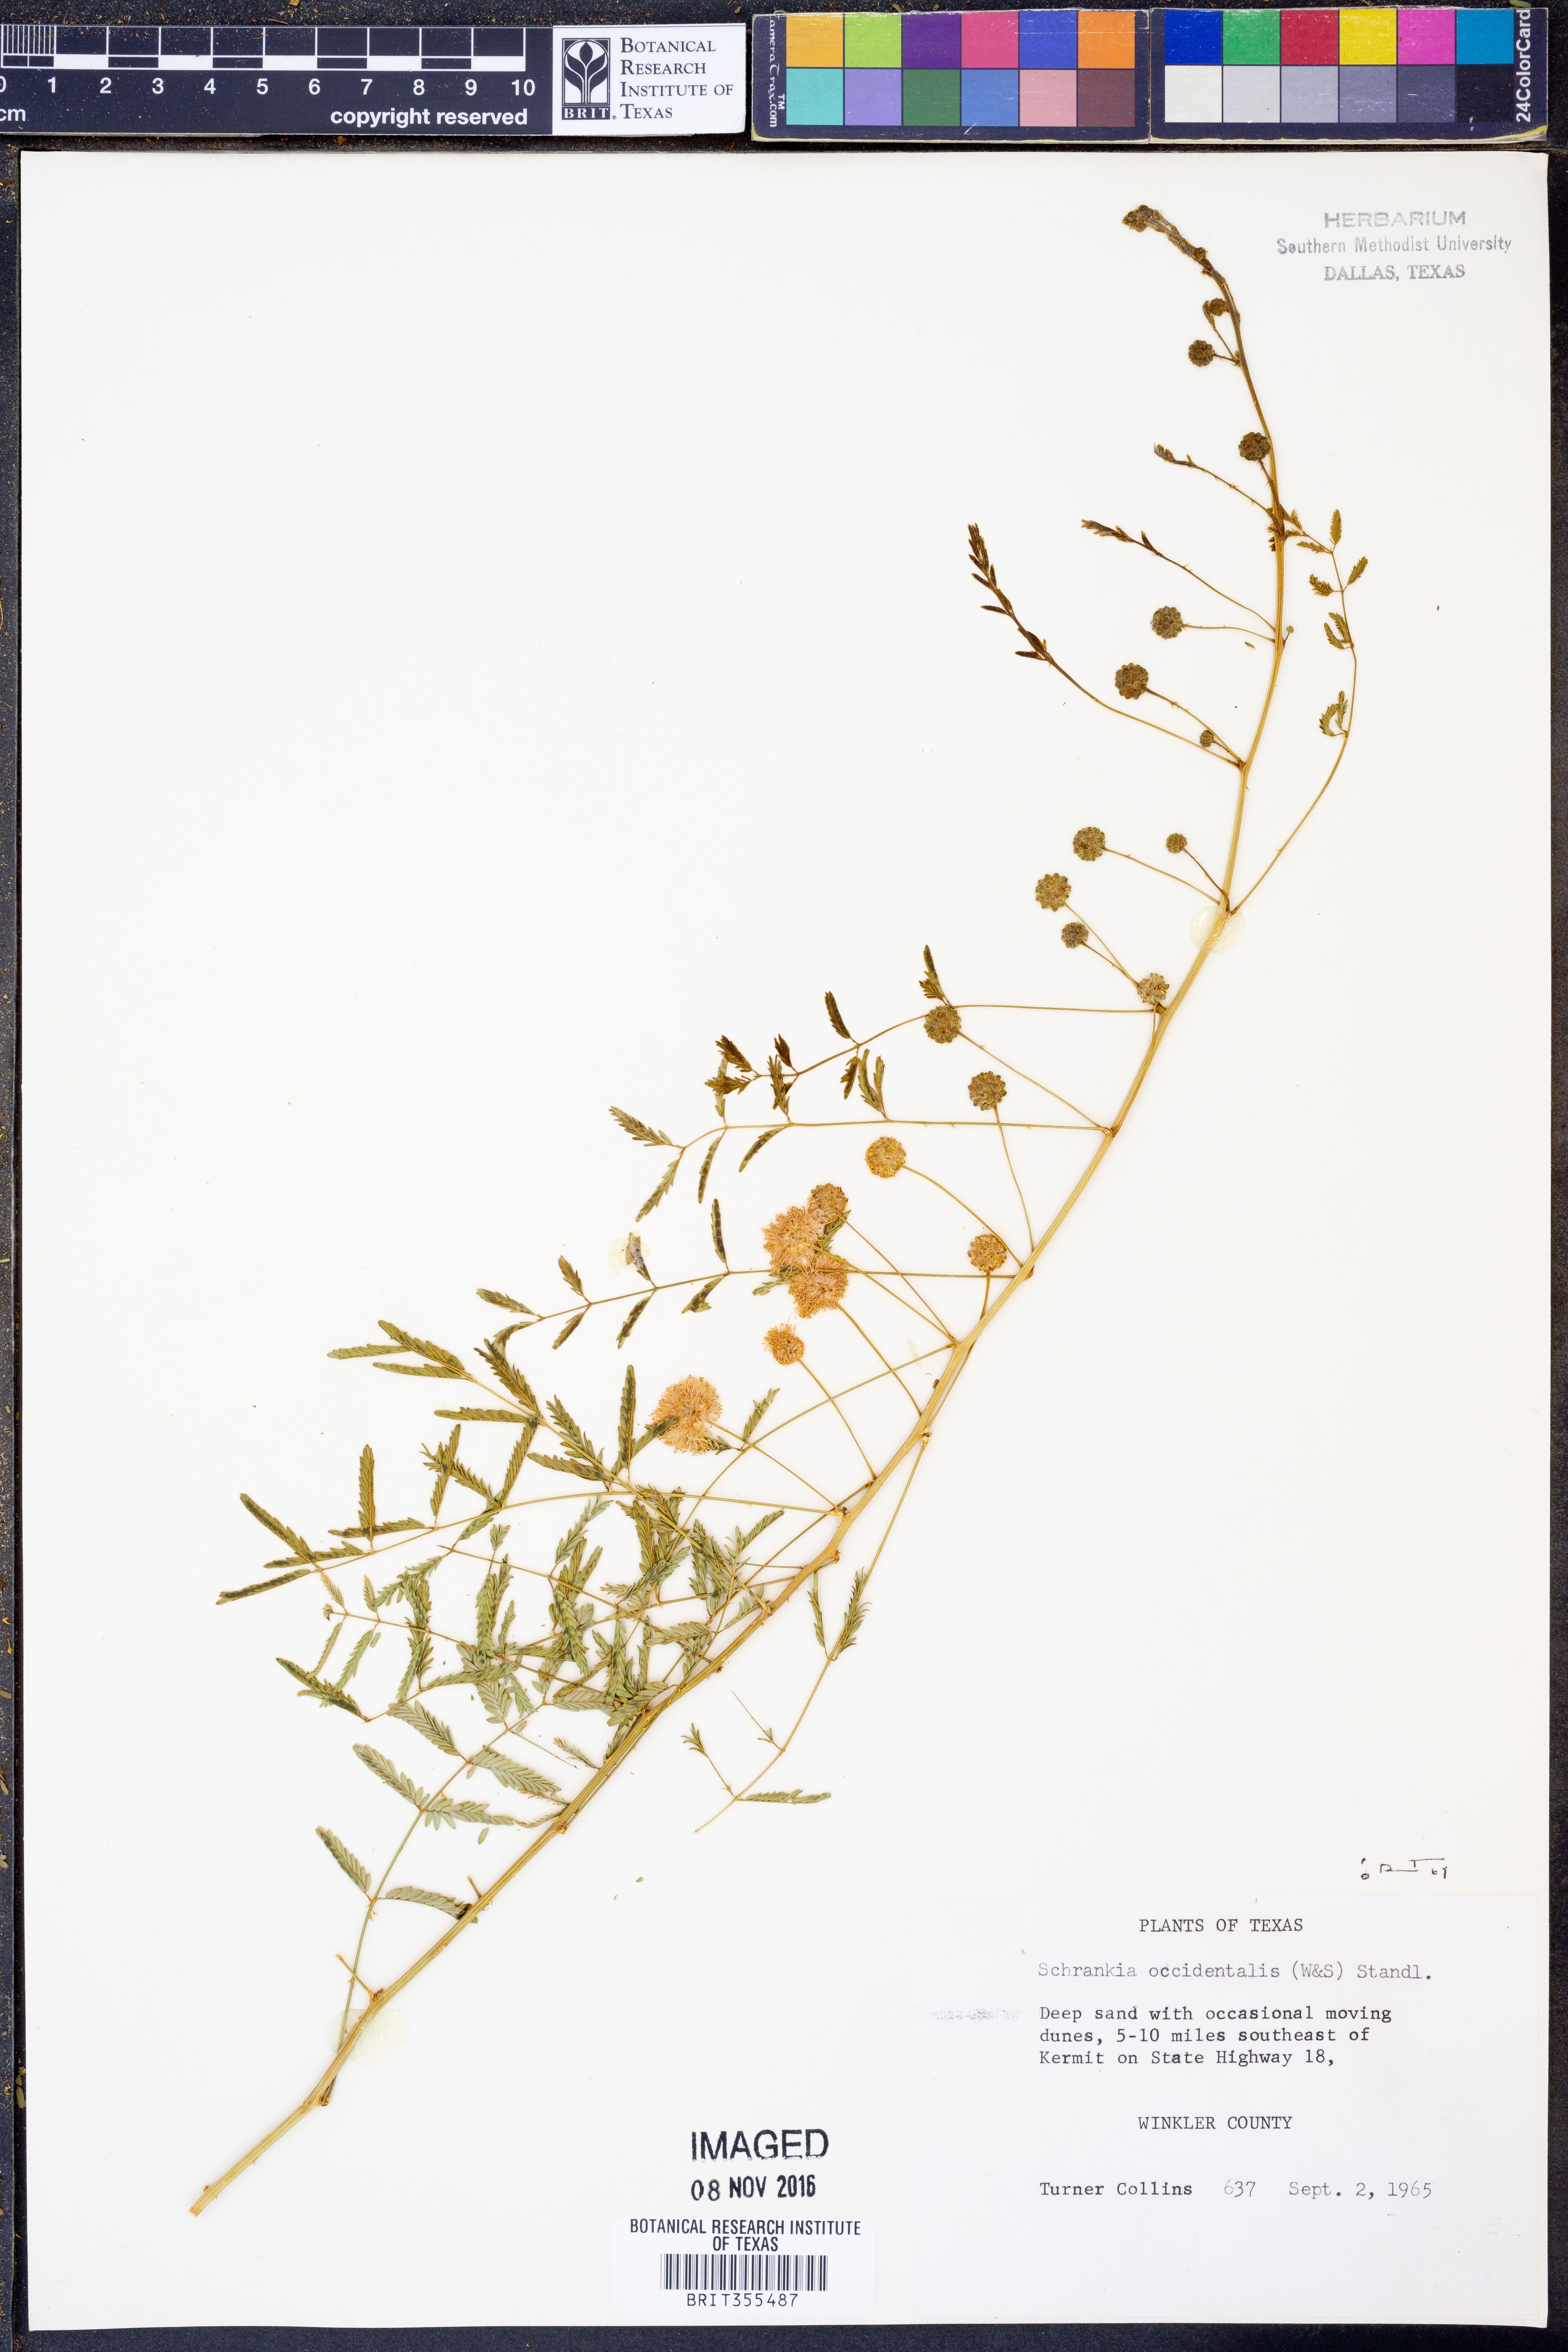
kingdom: Plantae
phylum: Tracheophyta
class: Magnoliopsida
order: Fabales
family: Fabaceae
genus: Mimosa
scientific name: Mimosa quadrivalvis
